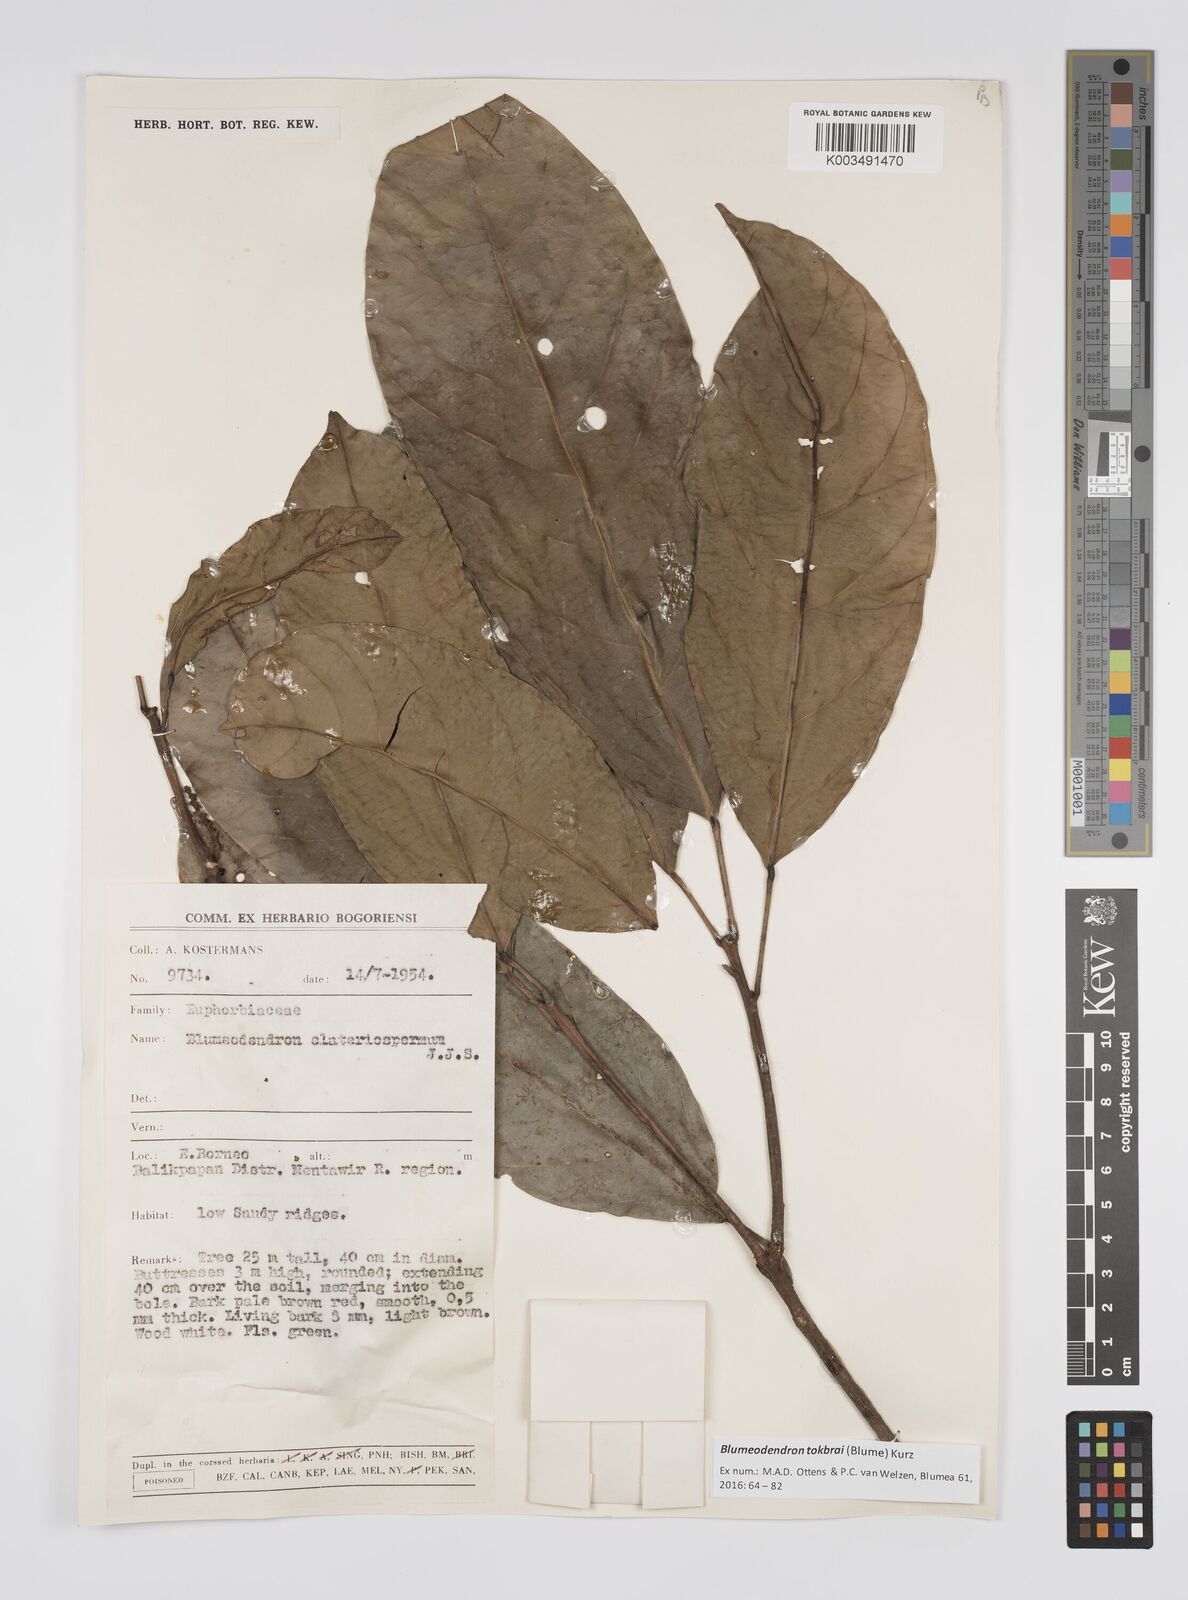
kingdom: Plantae
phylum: Tracheophyta
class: Magnoliopsida
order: Malpighiales
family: Euphorbiaceae
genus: Blumeodendron
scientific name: Blumeodendron tokbrai
